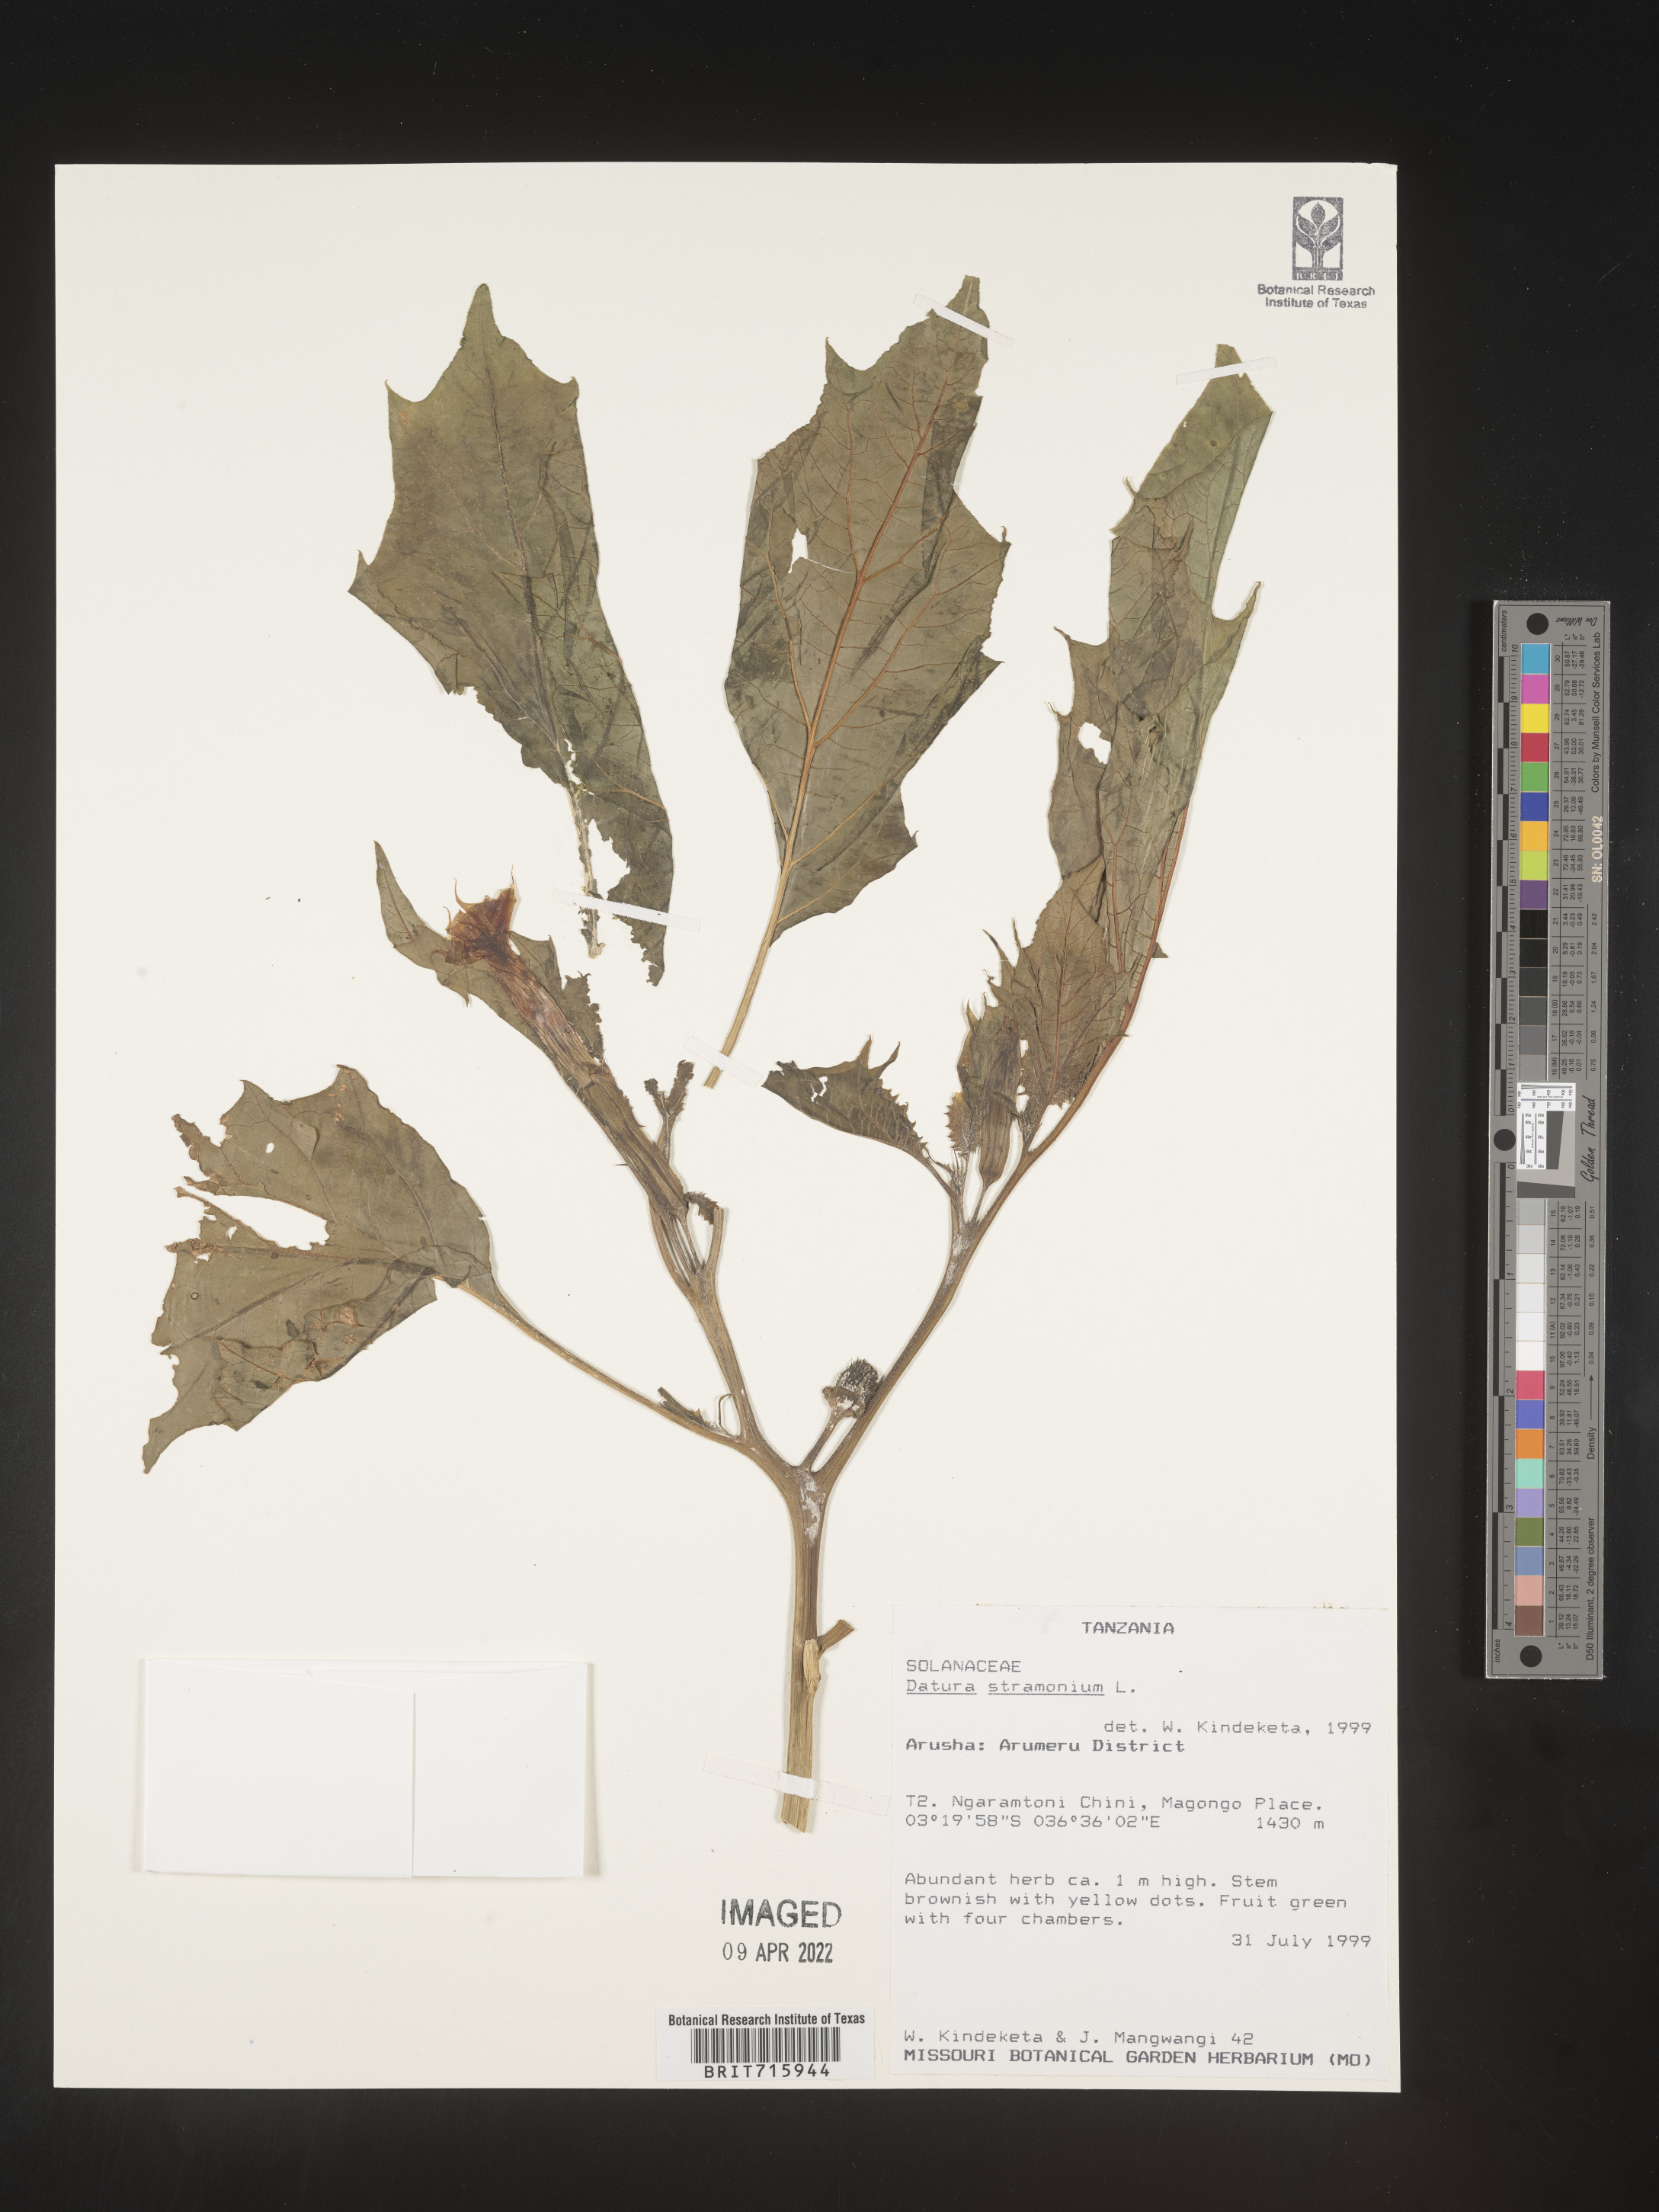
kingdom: Plantae
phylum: Tracheophyta
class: Magnoliopsida
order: Solanales
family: Solanaceae
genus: Datura
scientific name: Datura
